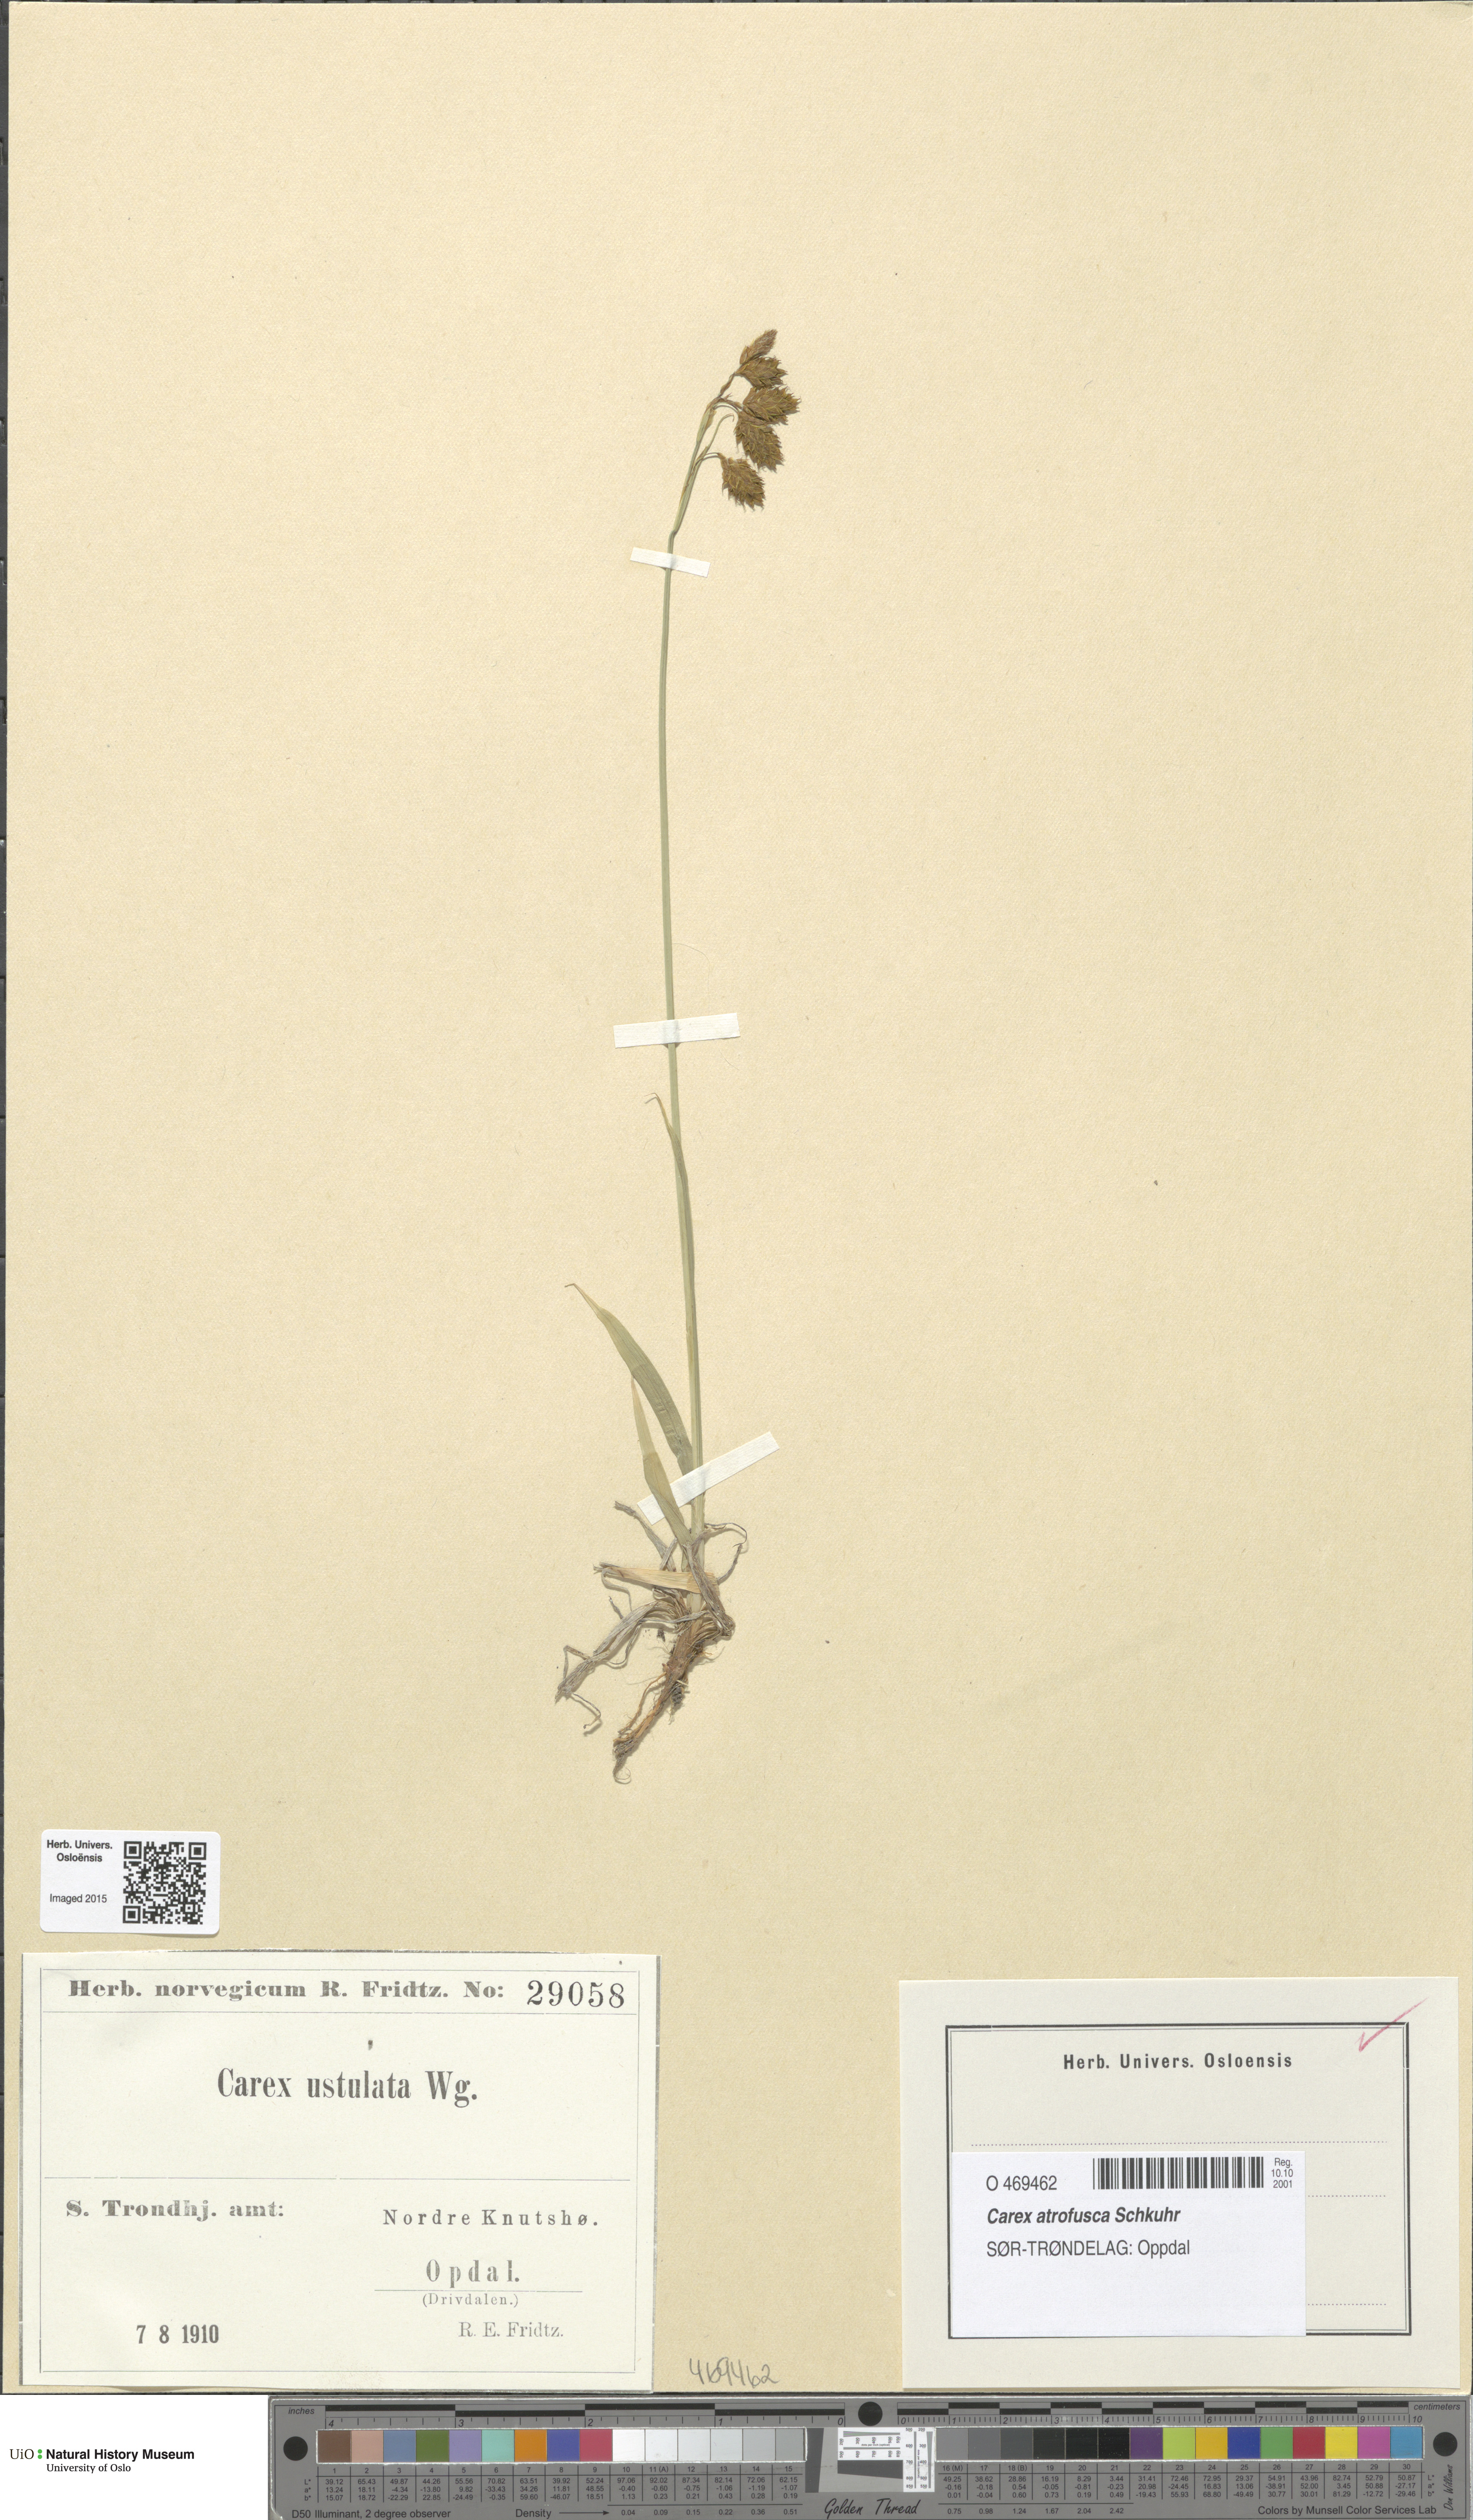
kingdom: Plantae
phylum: Tracheophyta
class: Liliopsida
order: Poales
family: Cyperaceae
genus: Carex
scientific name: Carex atrofusca
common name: Scorched alpine-sedge
